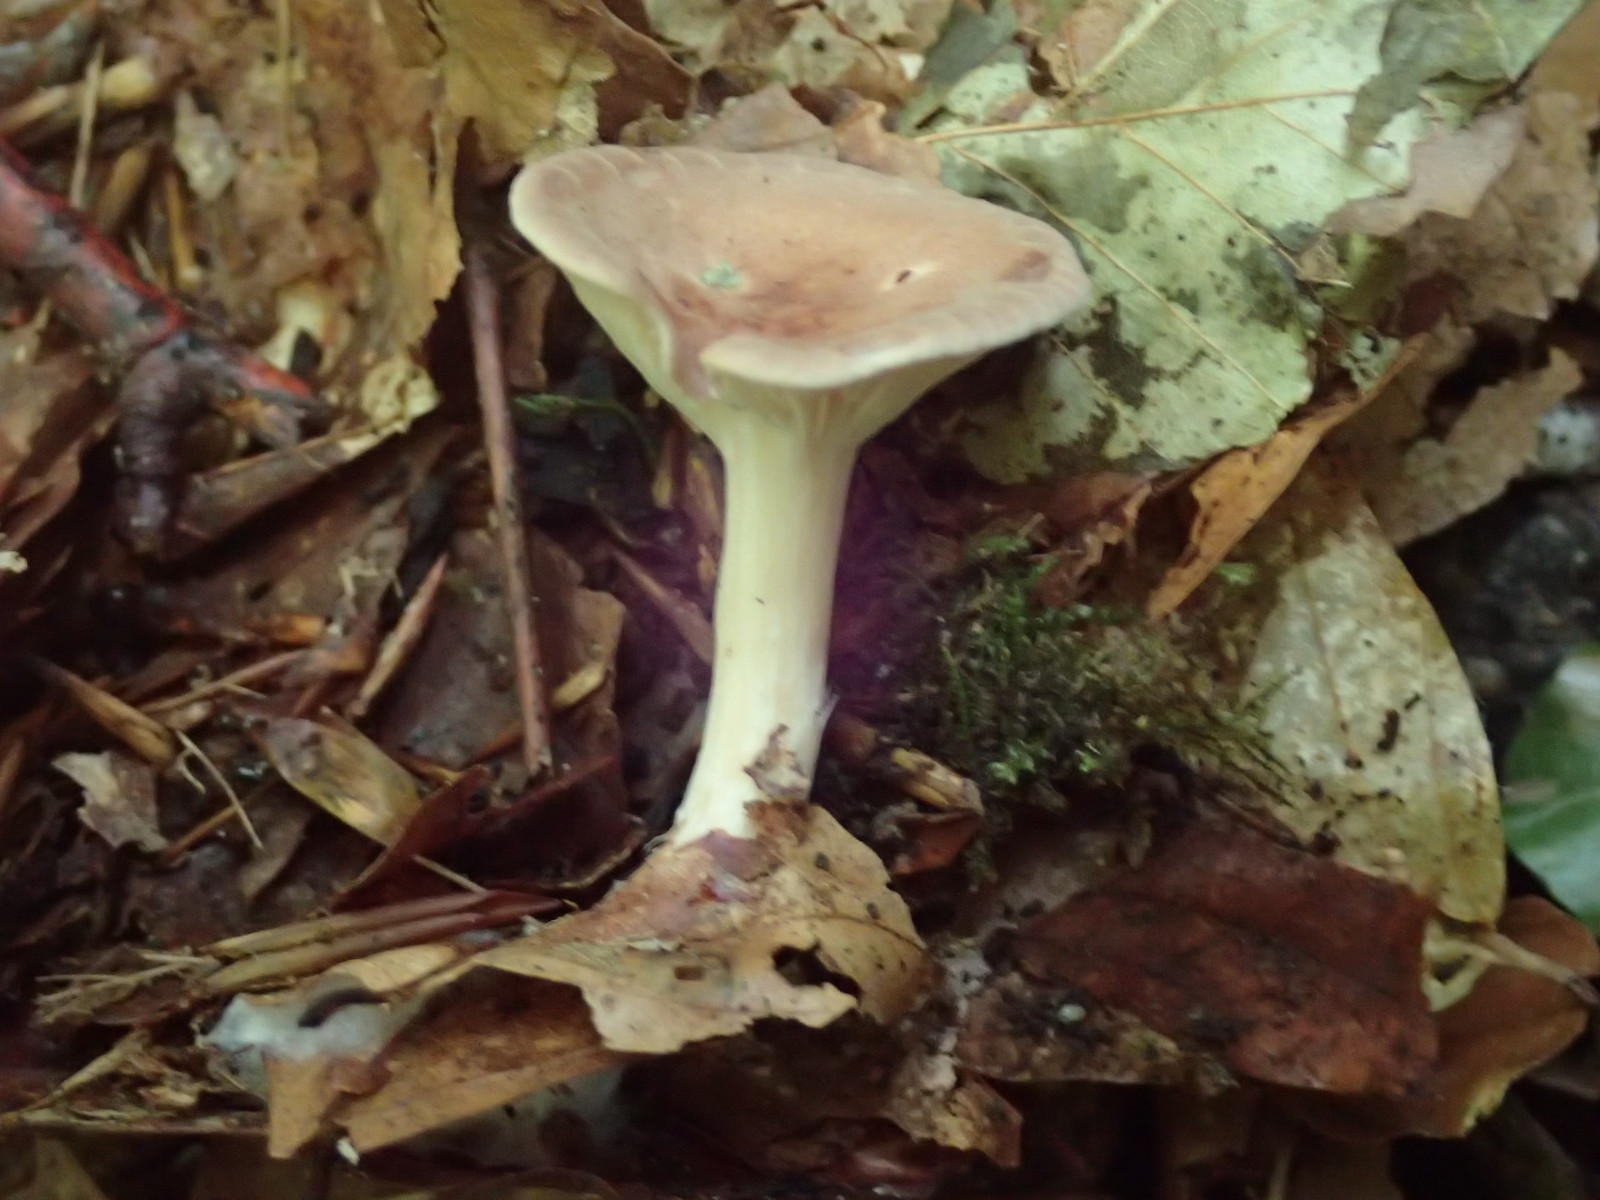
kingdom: Fungi
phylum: Basidiomycota
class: Agaricomycetes
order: Agaricales
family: Tricholomataceae
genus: Infundibulicybe
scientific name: Infundibulicybe gibba
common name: almindelig tragthat
